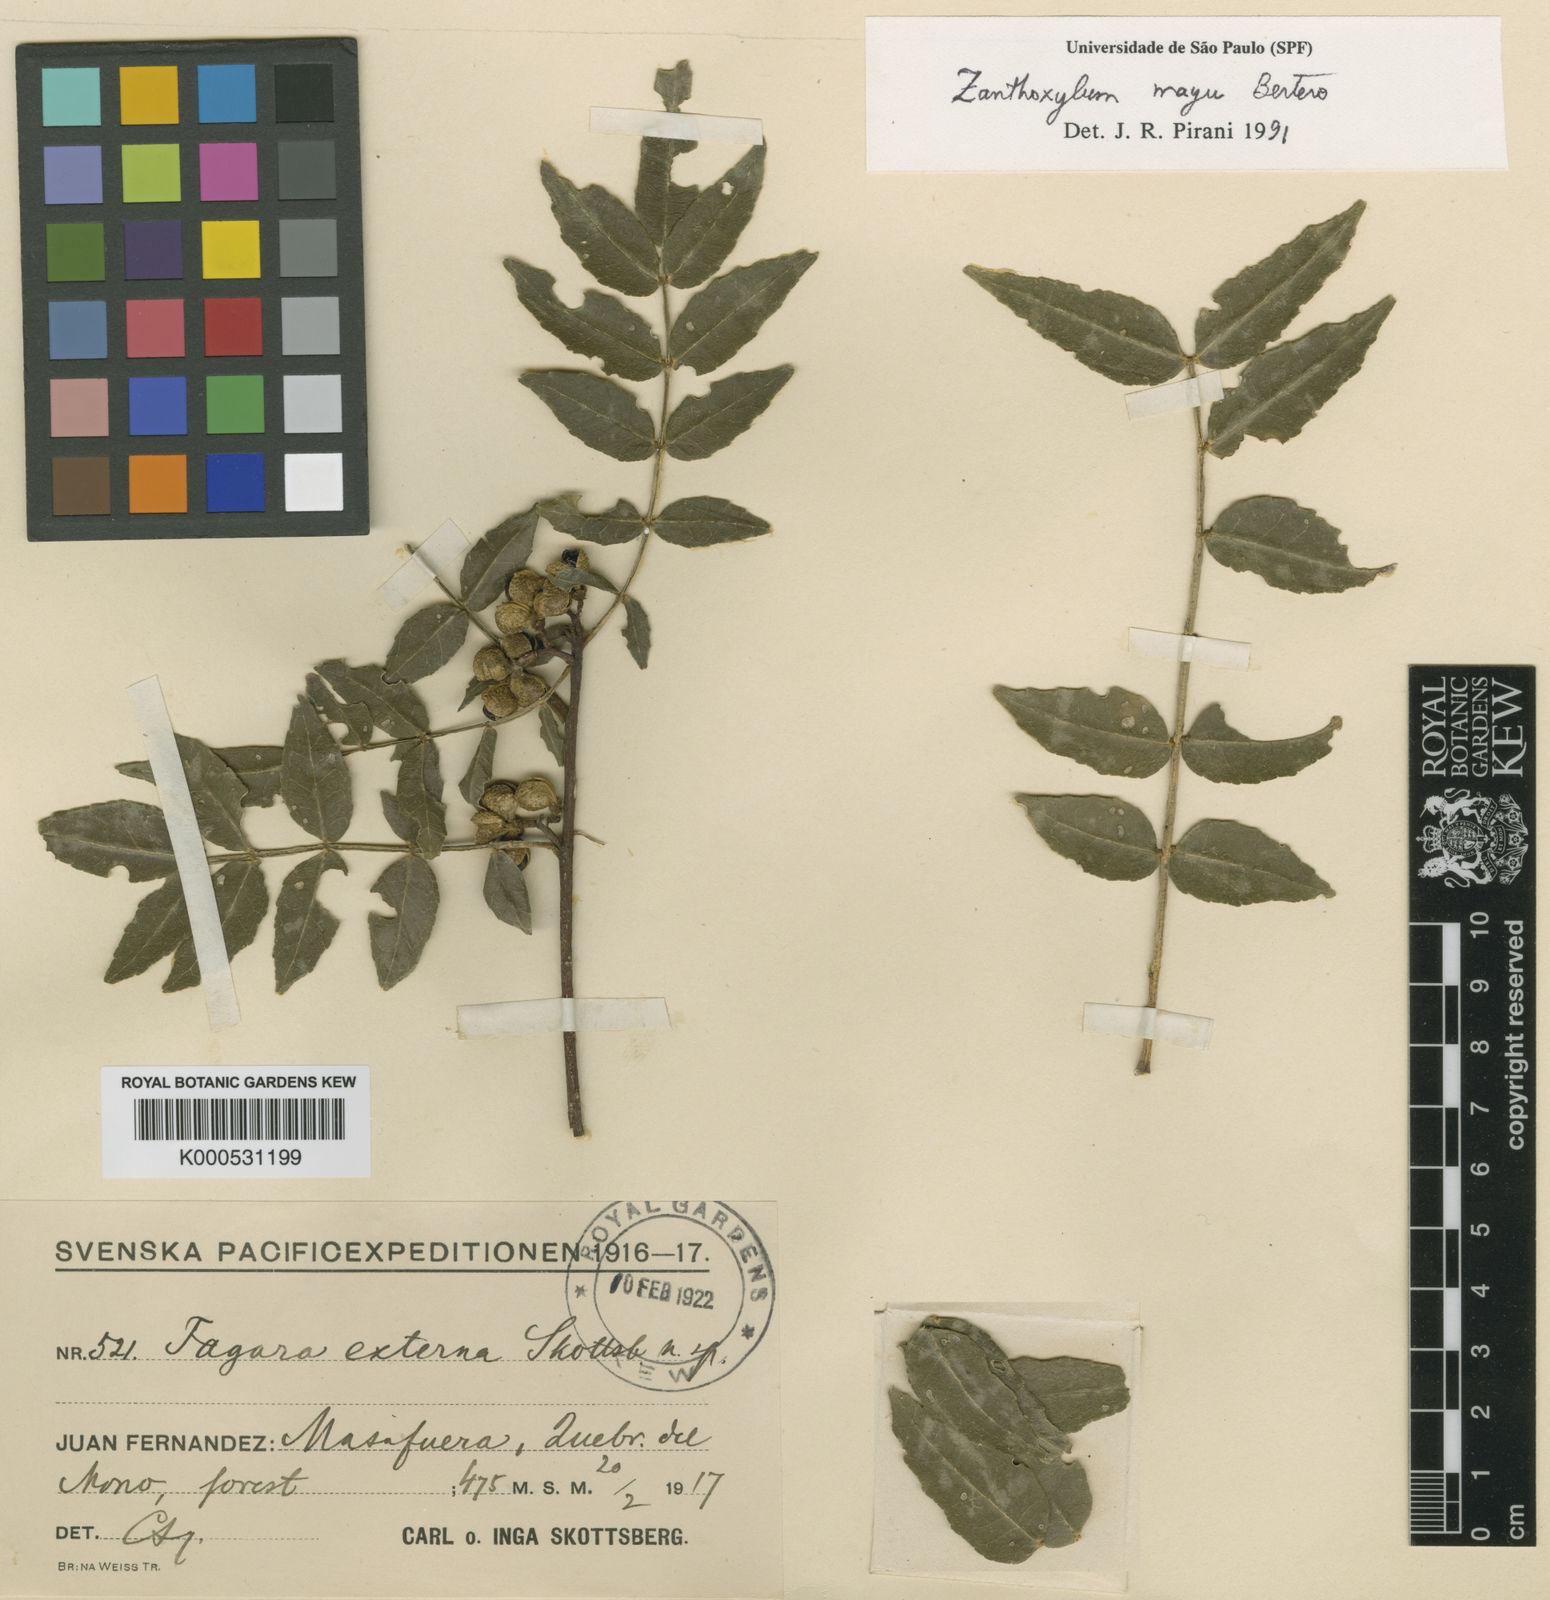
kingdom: Plantae
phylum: Tracheophyta
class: Magnoliopsida
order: Sapindales
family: Rutaceae
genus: Zanthoxylum
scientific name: Zanthoxylum
